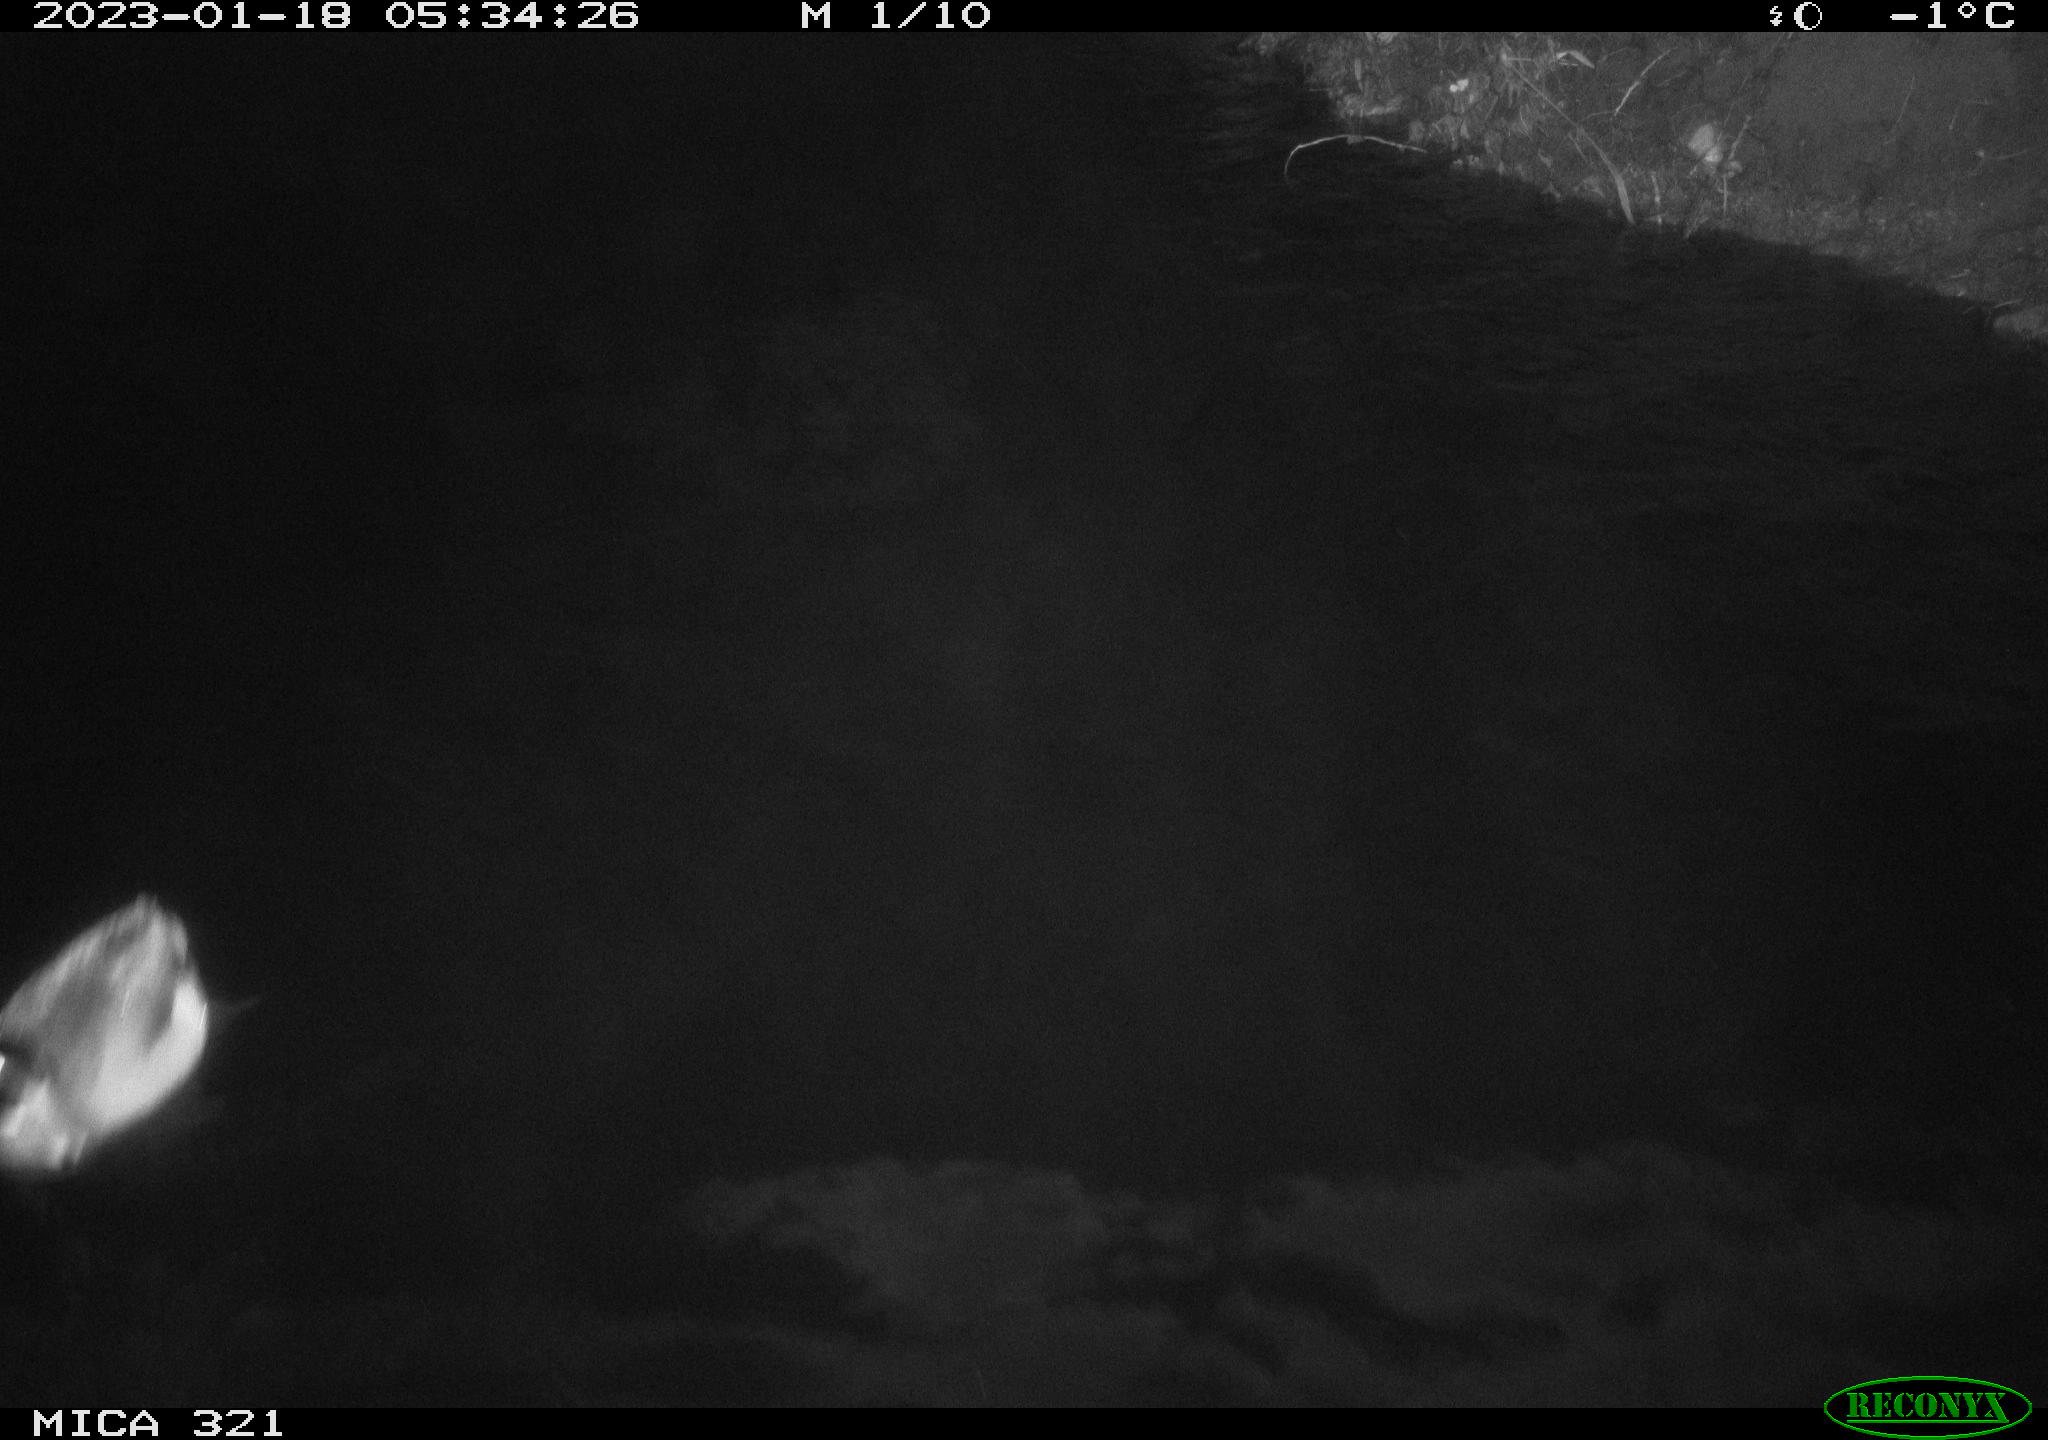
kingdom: Animalia
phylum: Chordata
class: Aves
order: Anseriformes
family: Anatidae
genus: Anas
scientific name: Anas
